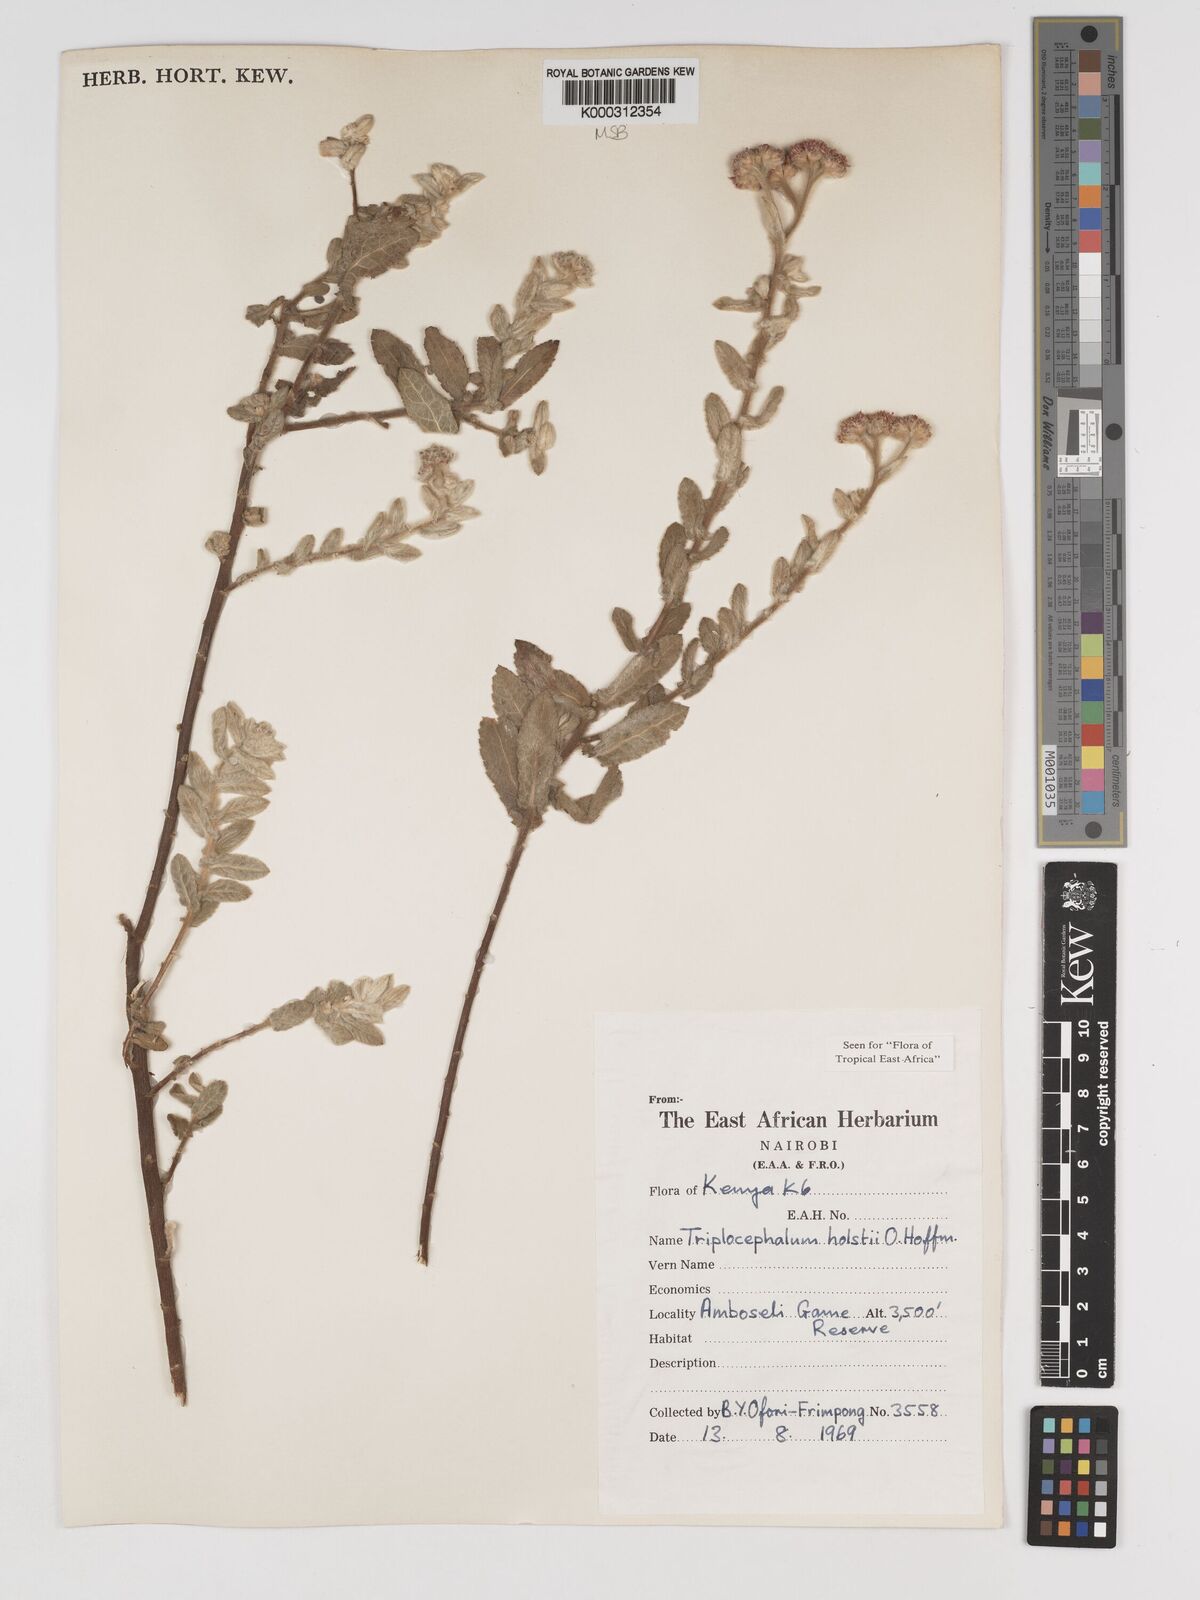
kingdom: Plantae
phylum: Tracheophyta
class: Magnoliopsida
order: Asterales
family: Asteraceae
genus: Triplocephalum
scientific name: Triplocephalum holstii
